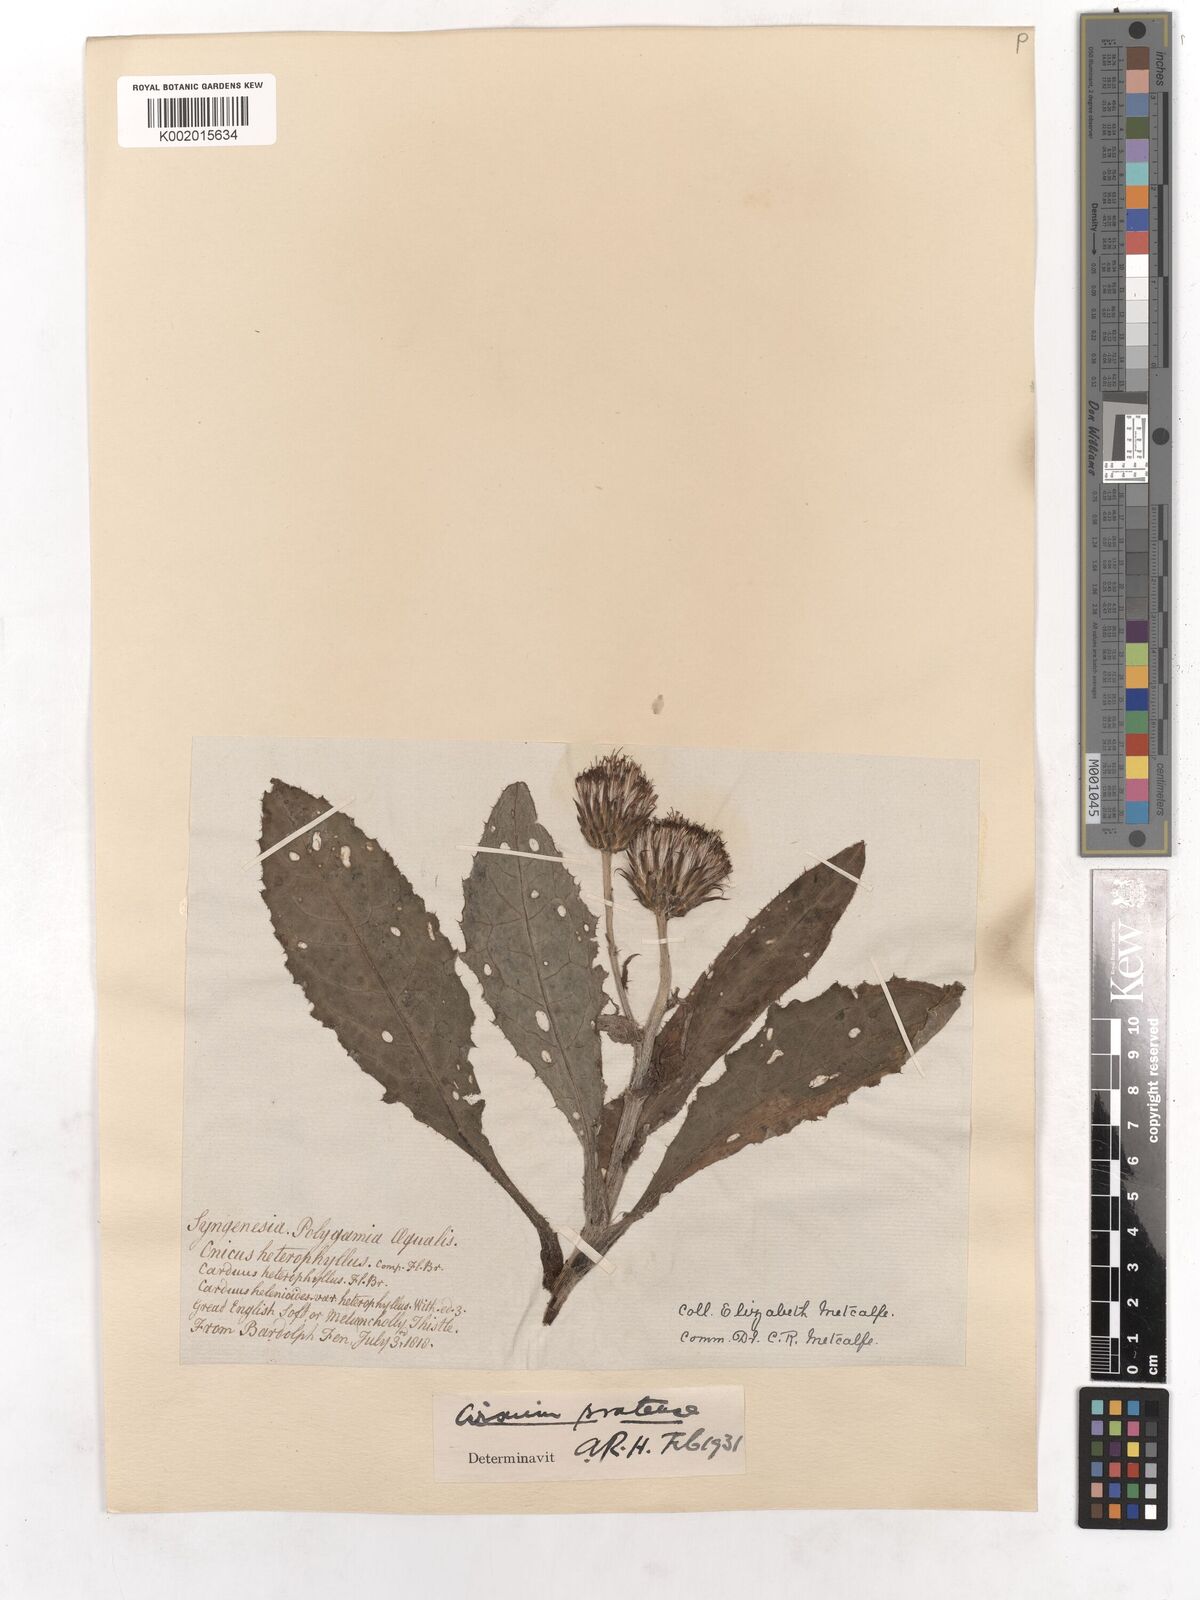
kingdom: Plantae
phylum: Tracheophyta
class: Magnoliopsida
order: Asterales
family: Asteraceae
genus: Cirsium
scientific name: Cirsium dissectum
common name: Meadow thistle
